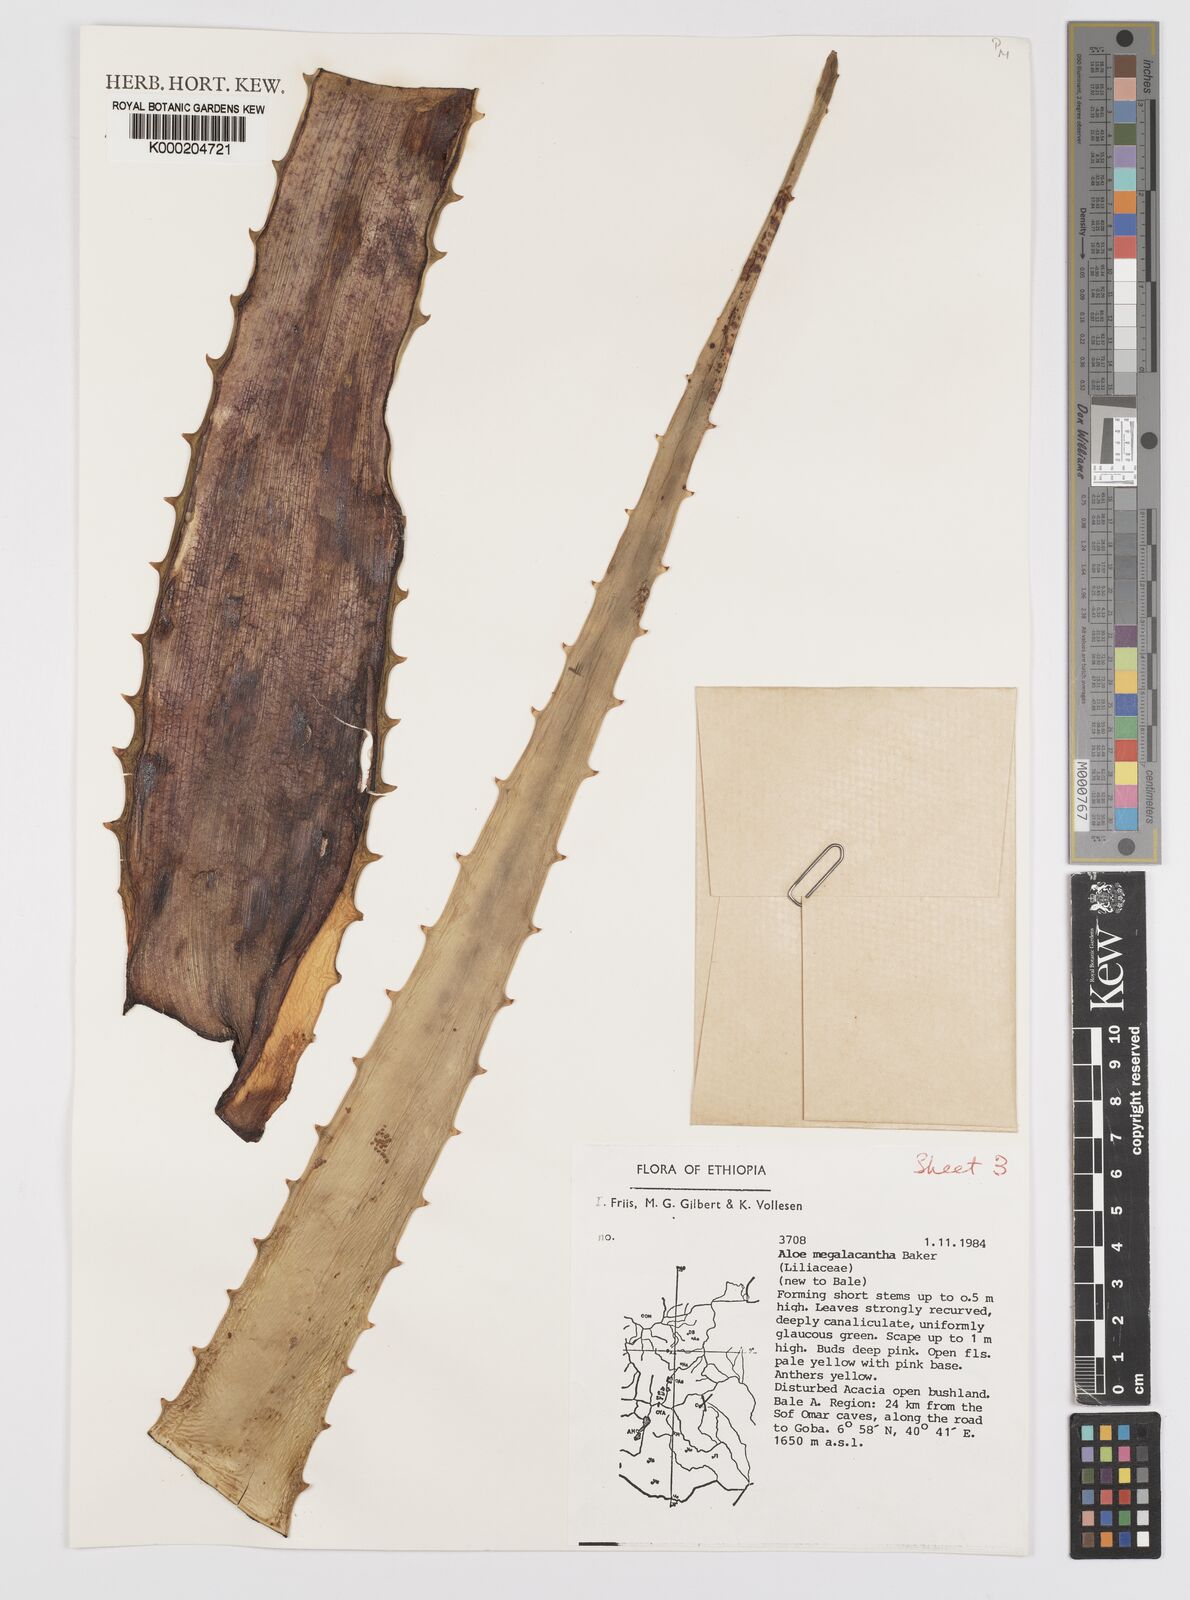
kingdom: Plantae
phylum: Tracheophyta
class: Liliopsida
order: Asparagales
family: Asphodelaceae
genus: Aloe
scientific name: Aloe megalacantha
